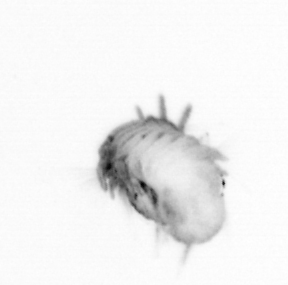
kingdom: Animalia
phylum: Annelida
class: Polychaeta
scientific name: Polychaeta
